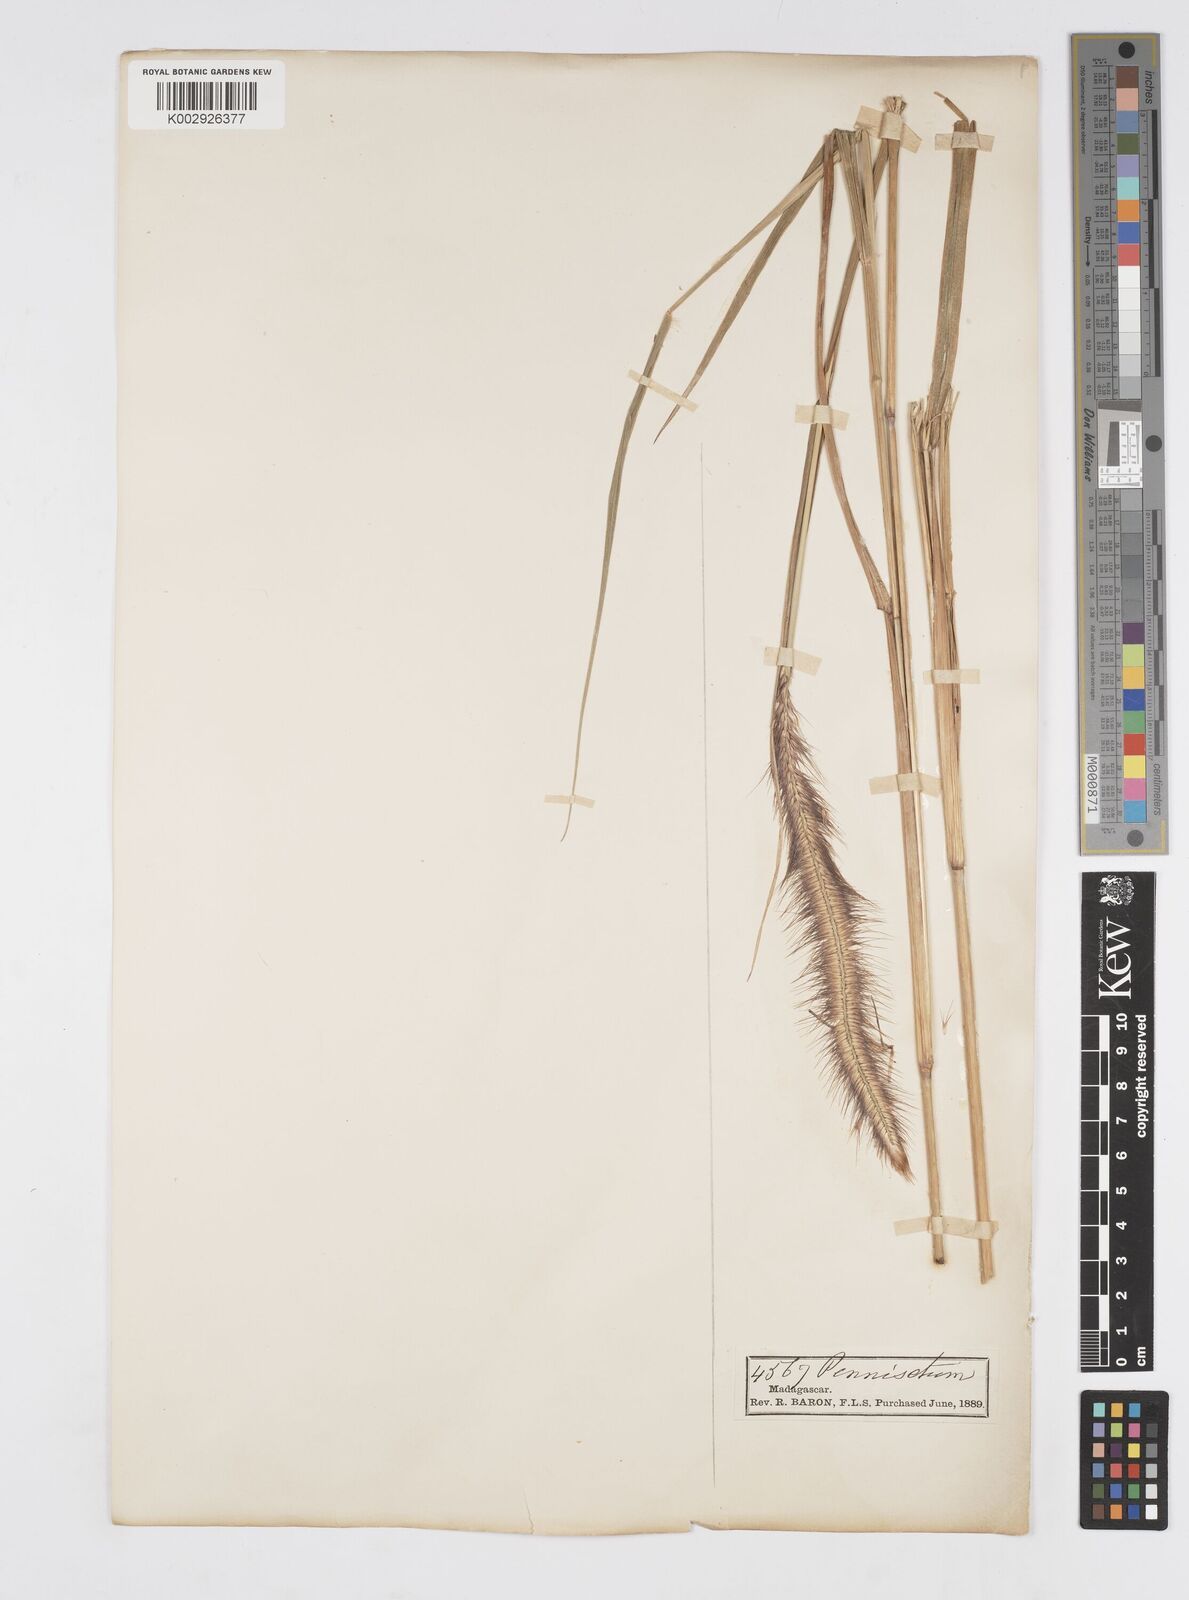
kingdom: Plantae
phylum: Tracheophyta
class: Liliopsida
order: Poales
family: Poaceae
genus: Setaria
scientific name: Setaria parviflora
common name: Knotroot bristle-grass
